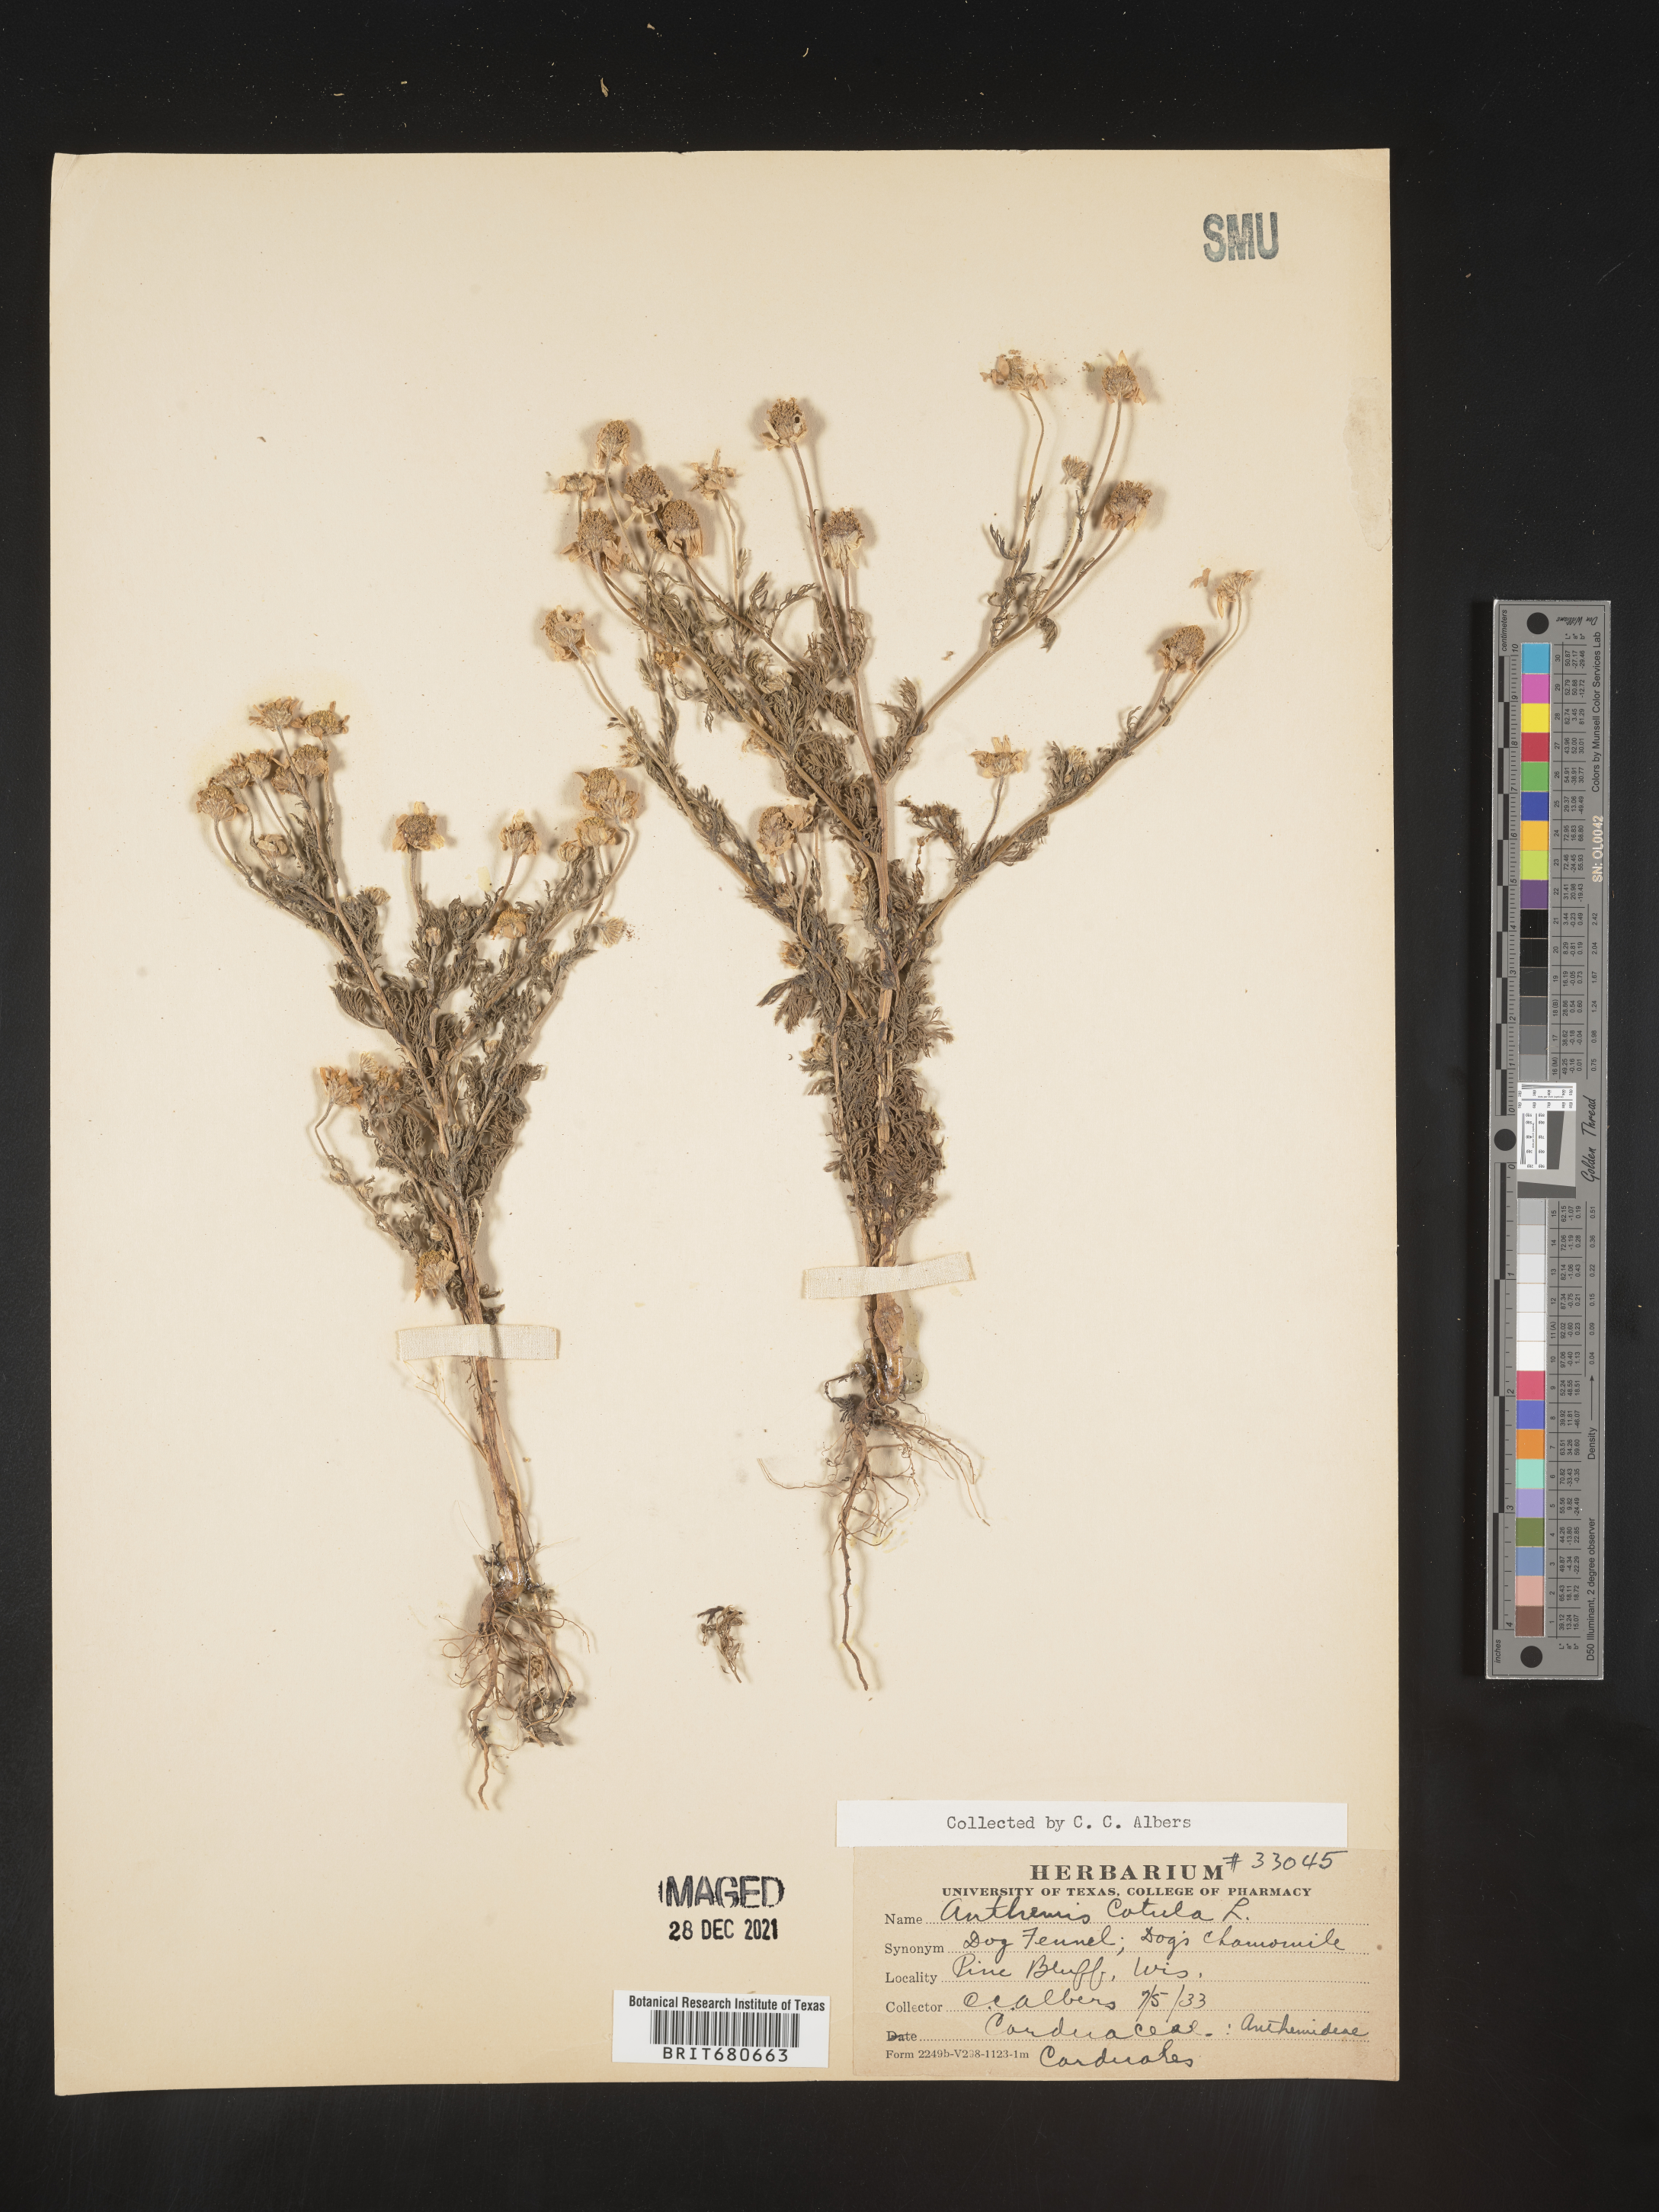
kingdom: Plantae
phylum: Tracheophyta
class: Magnoliopsida
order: Asterales
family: Asteraceae
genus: Anthemis
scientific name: Anthemis cotula
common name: Stinking chamomile
